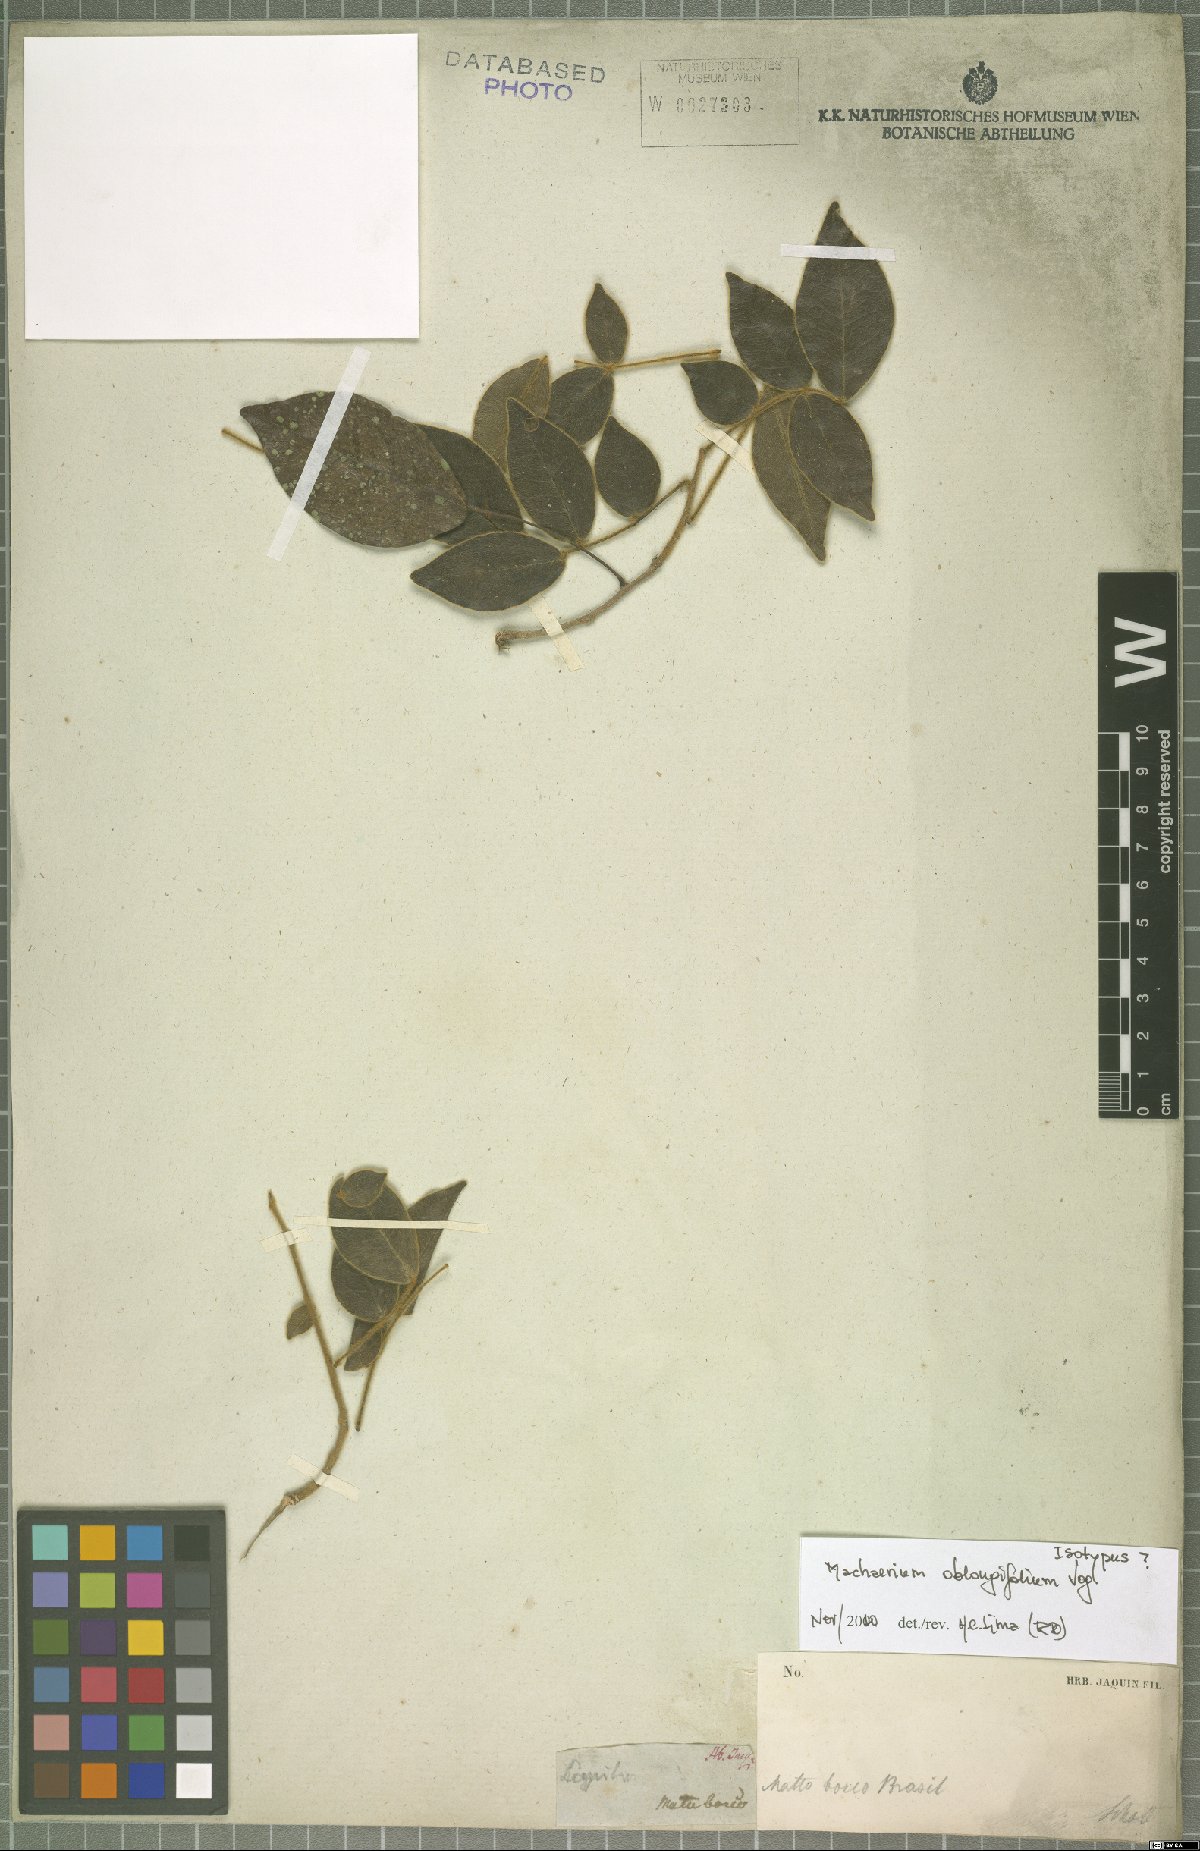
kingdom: Plantae
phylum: Tracheophyta
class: Magnoliopsida
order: Fabales
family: Fabaceae
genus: Machaerium
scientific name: Machaerium oblongifolium
